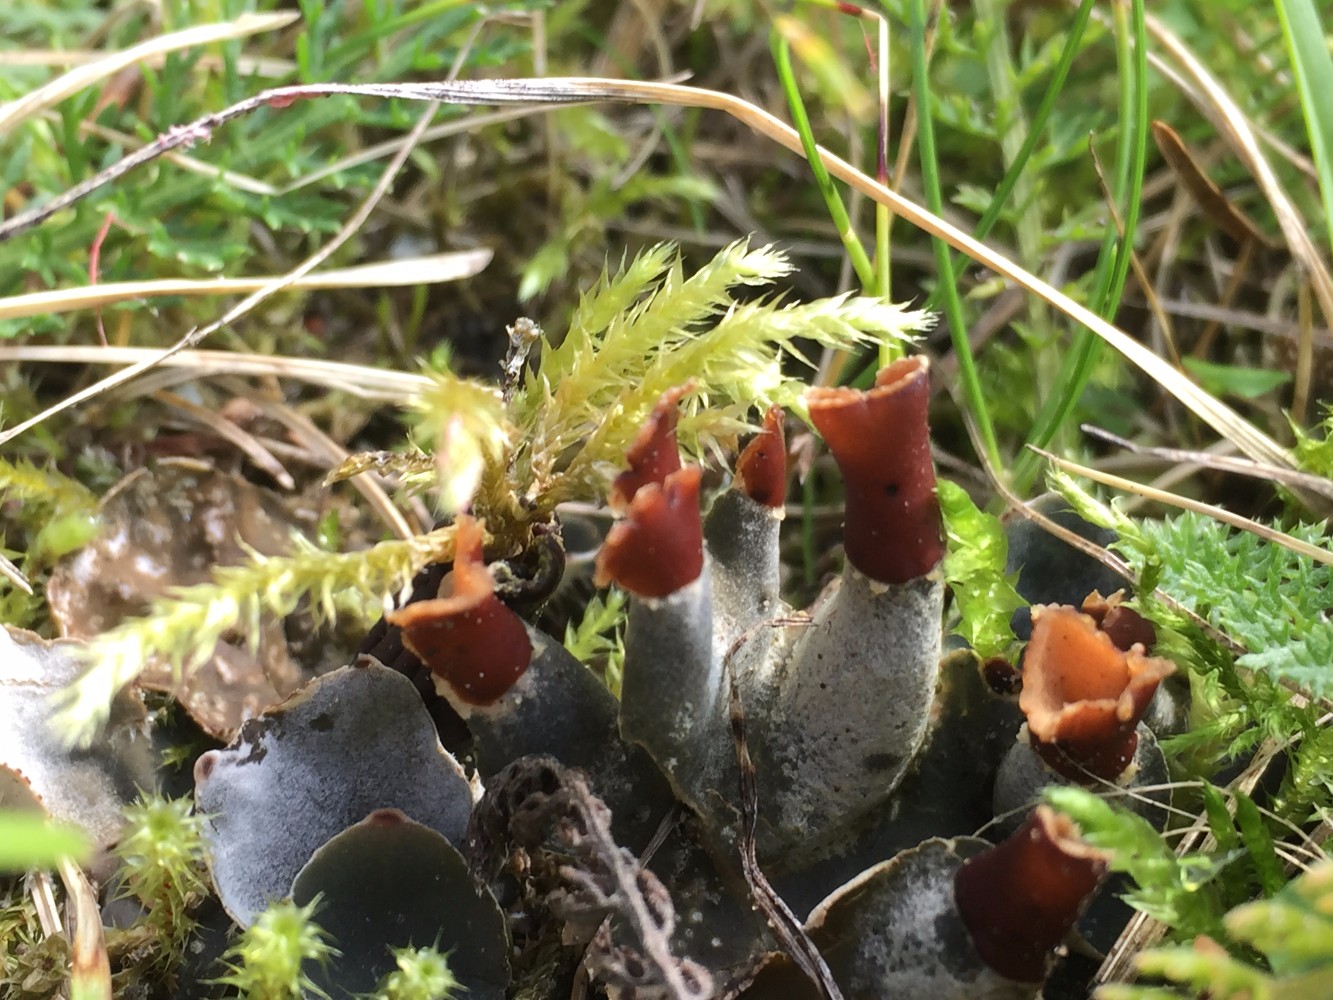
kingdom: Fungi
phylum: Ascomycota
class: Lecanoromycetes
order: Peltigerales
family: Peltigeraceae
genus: Peltigera
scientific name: Peltigera didactyla
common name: liden skjoldlav
